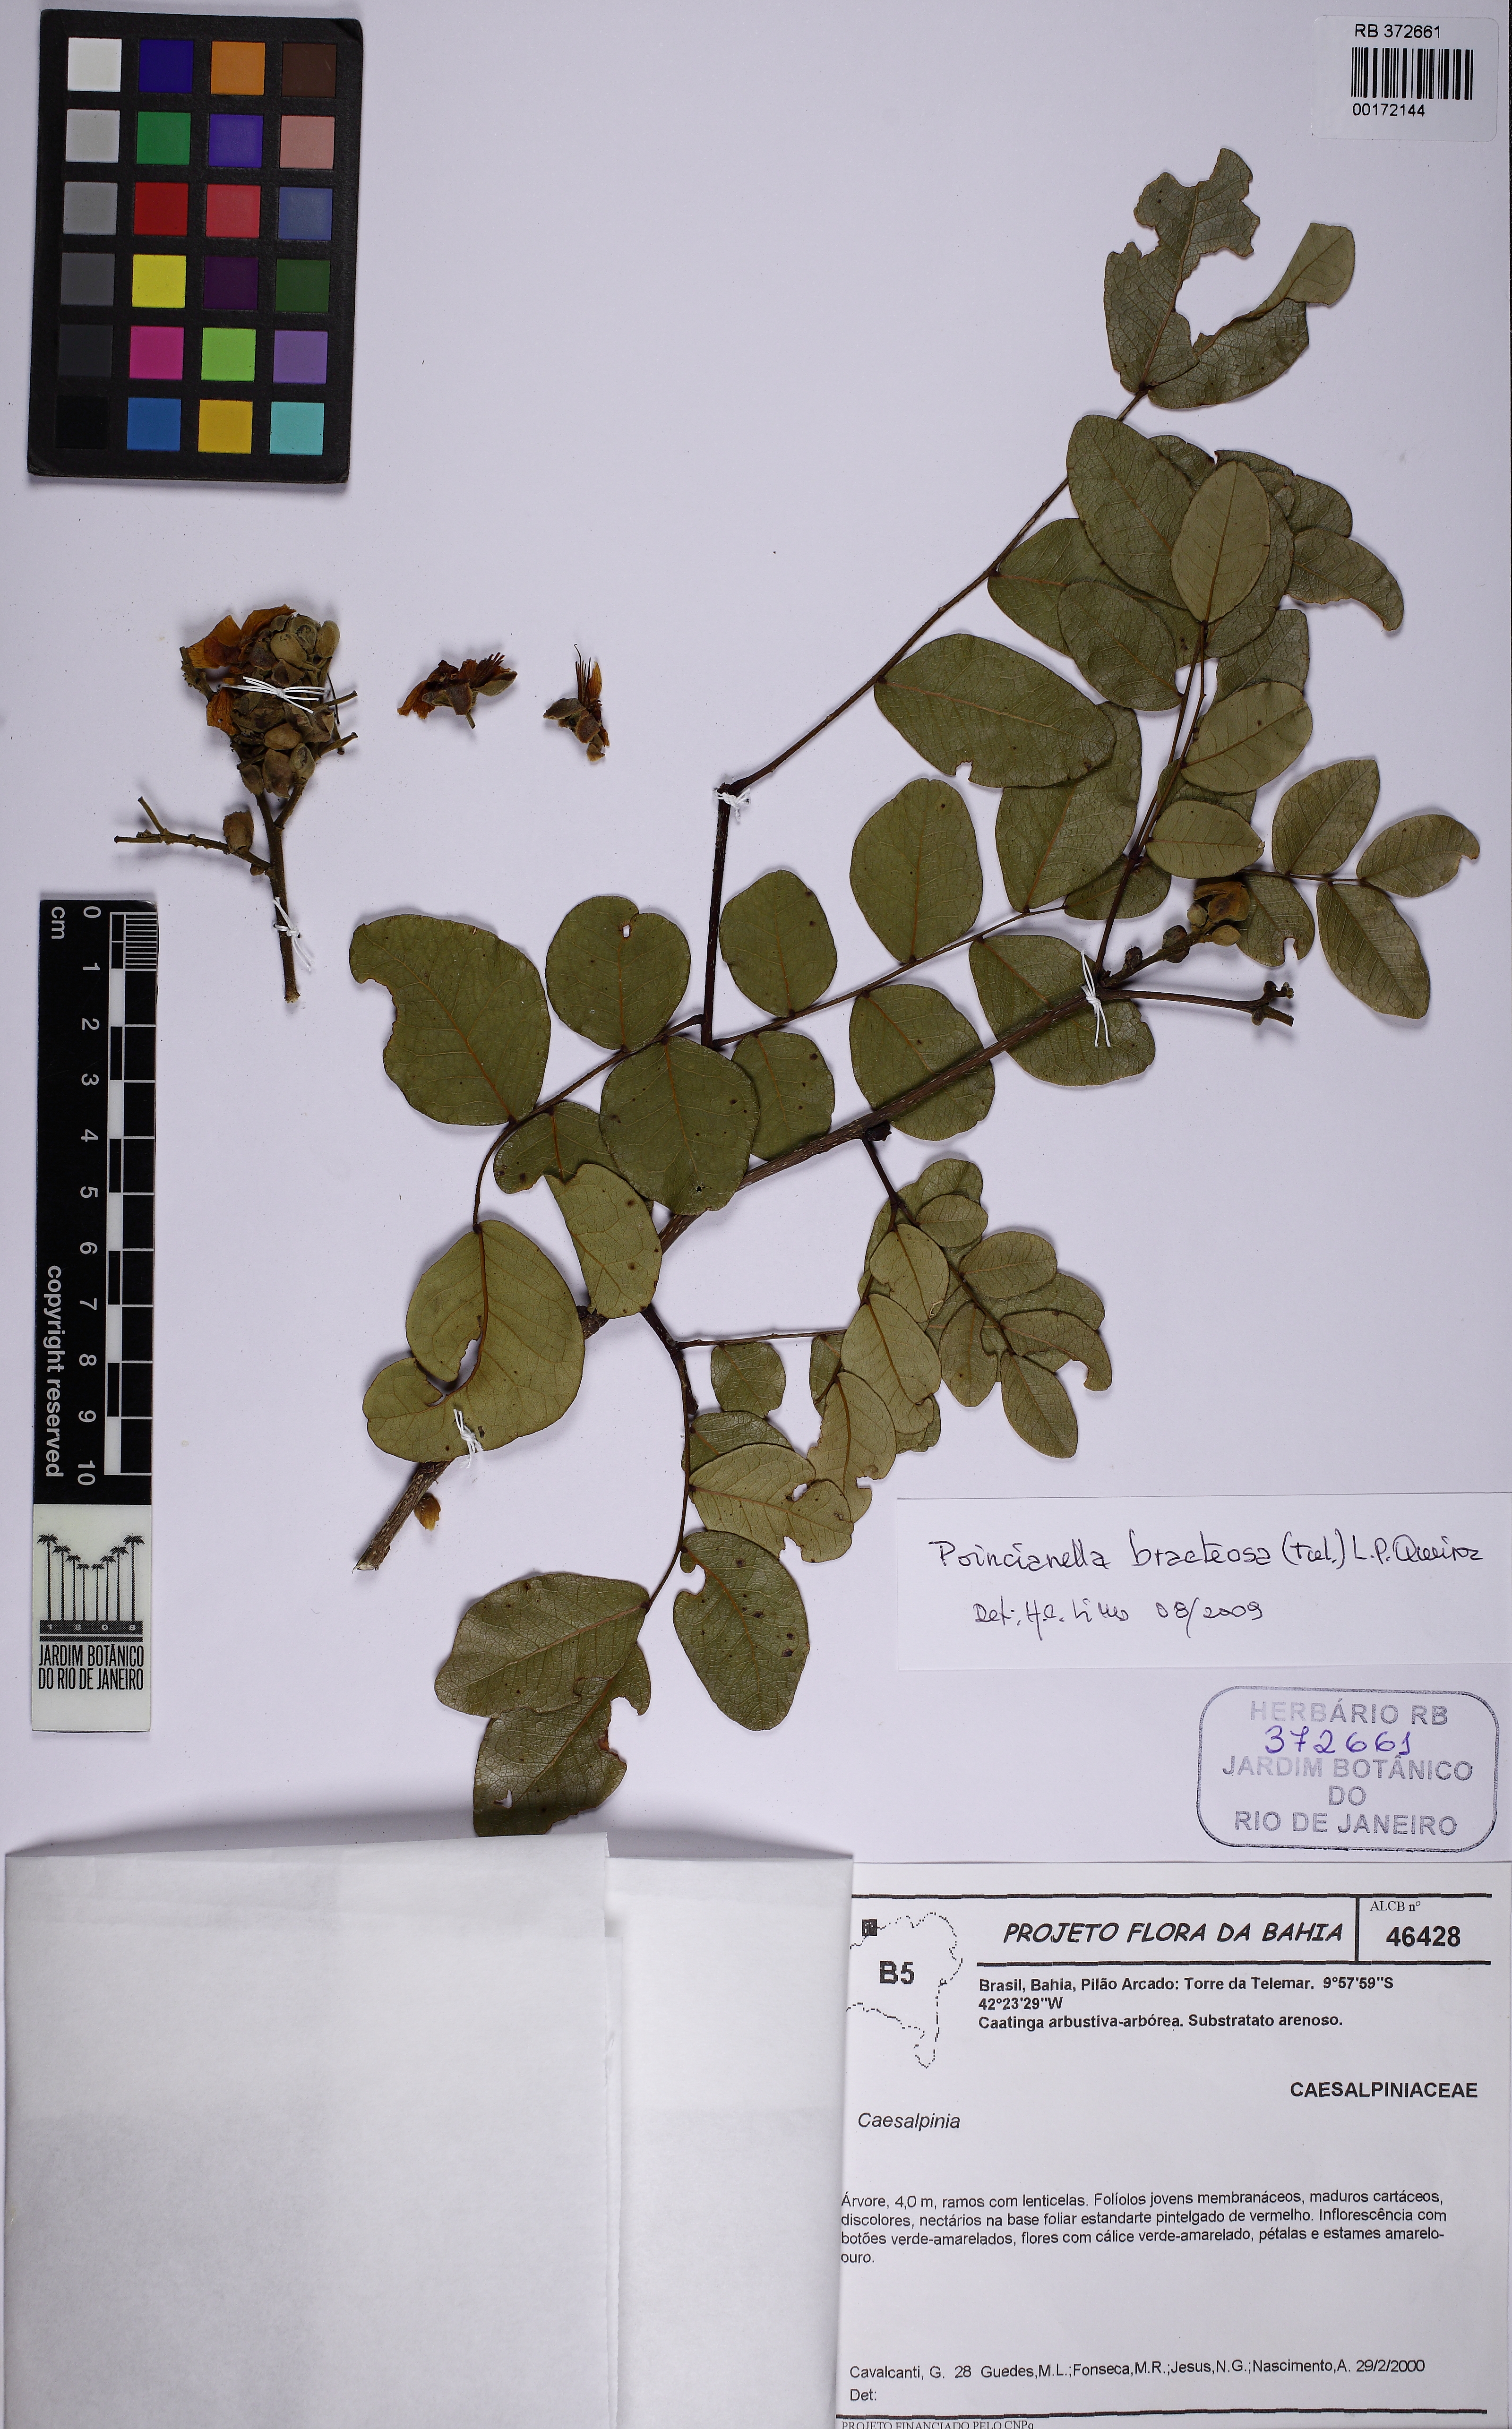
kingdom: Plantae
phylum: Tracheophyta
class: Magnoliopsida
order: Fabales
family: Fabaceae
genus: Cenostigma
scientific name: Cenostigma bracteosum
